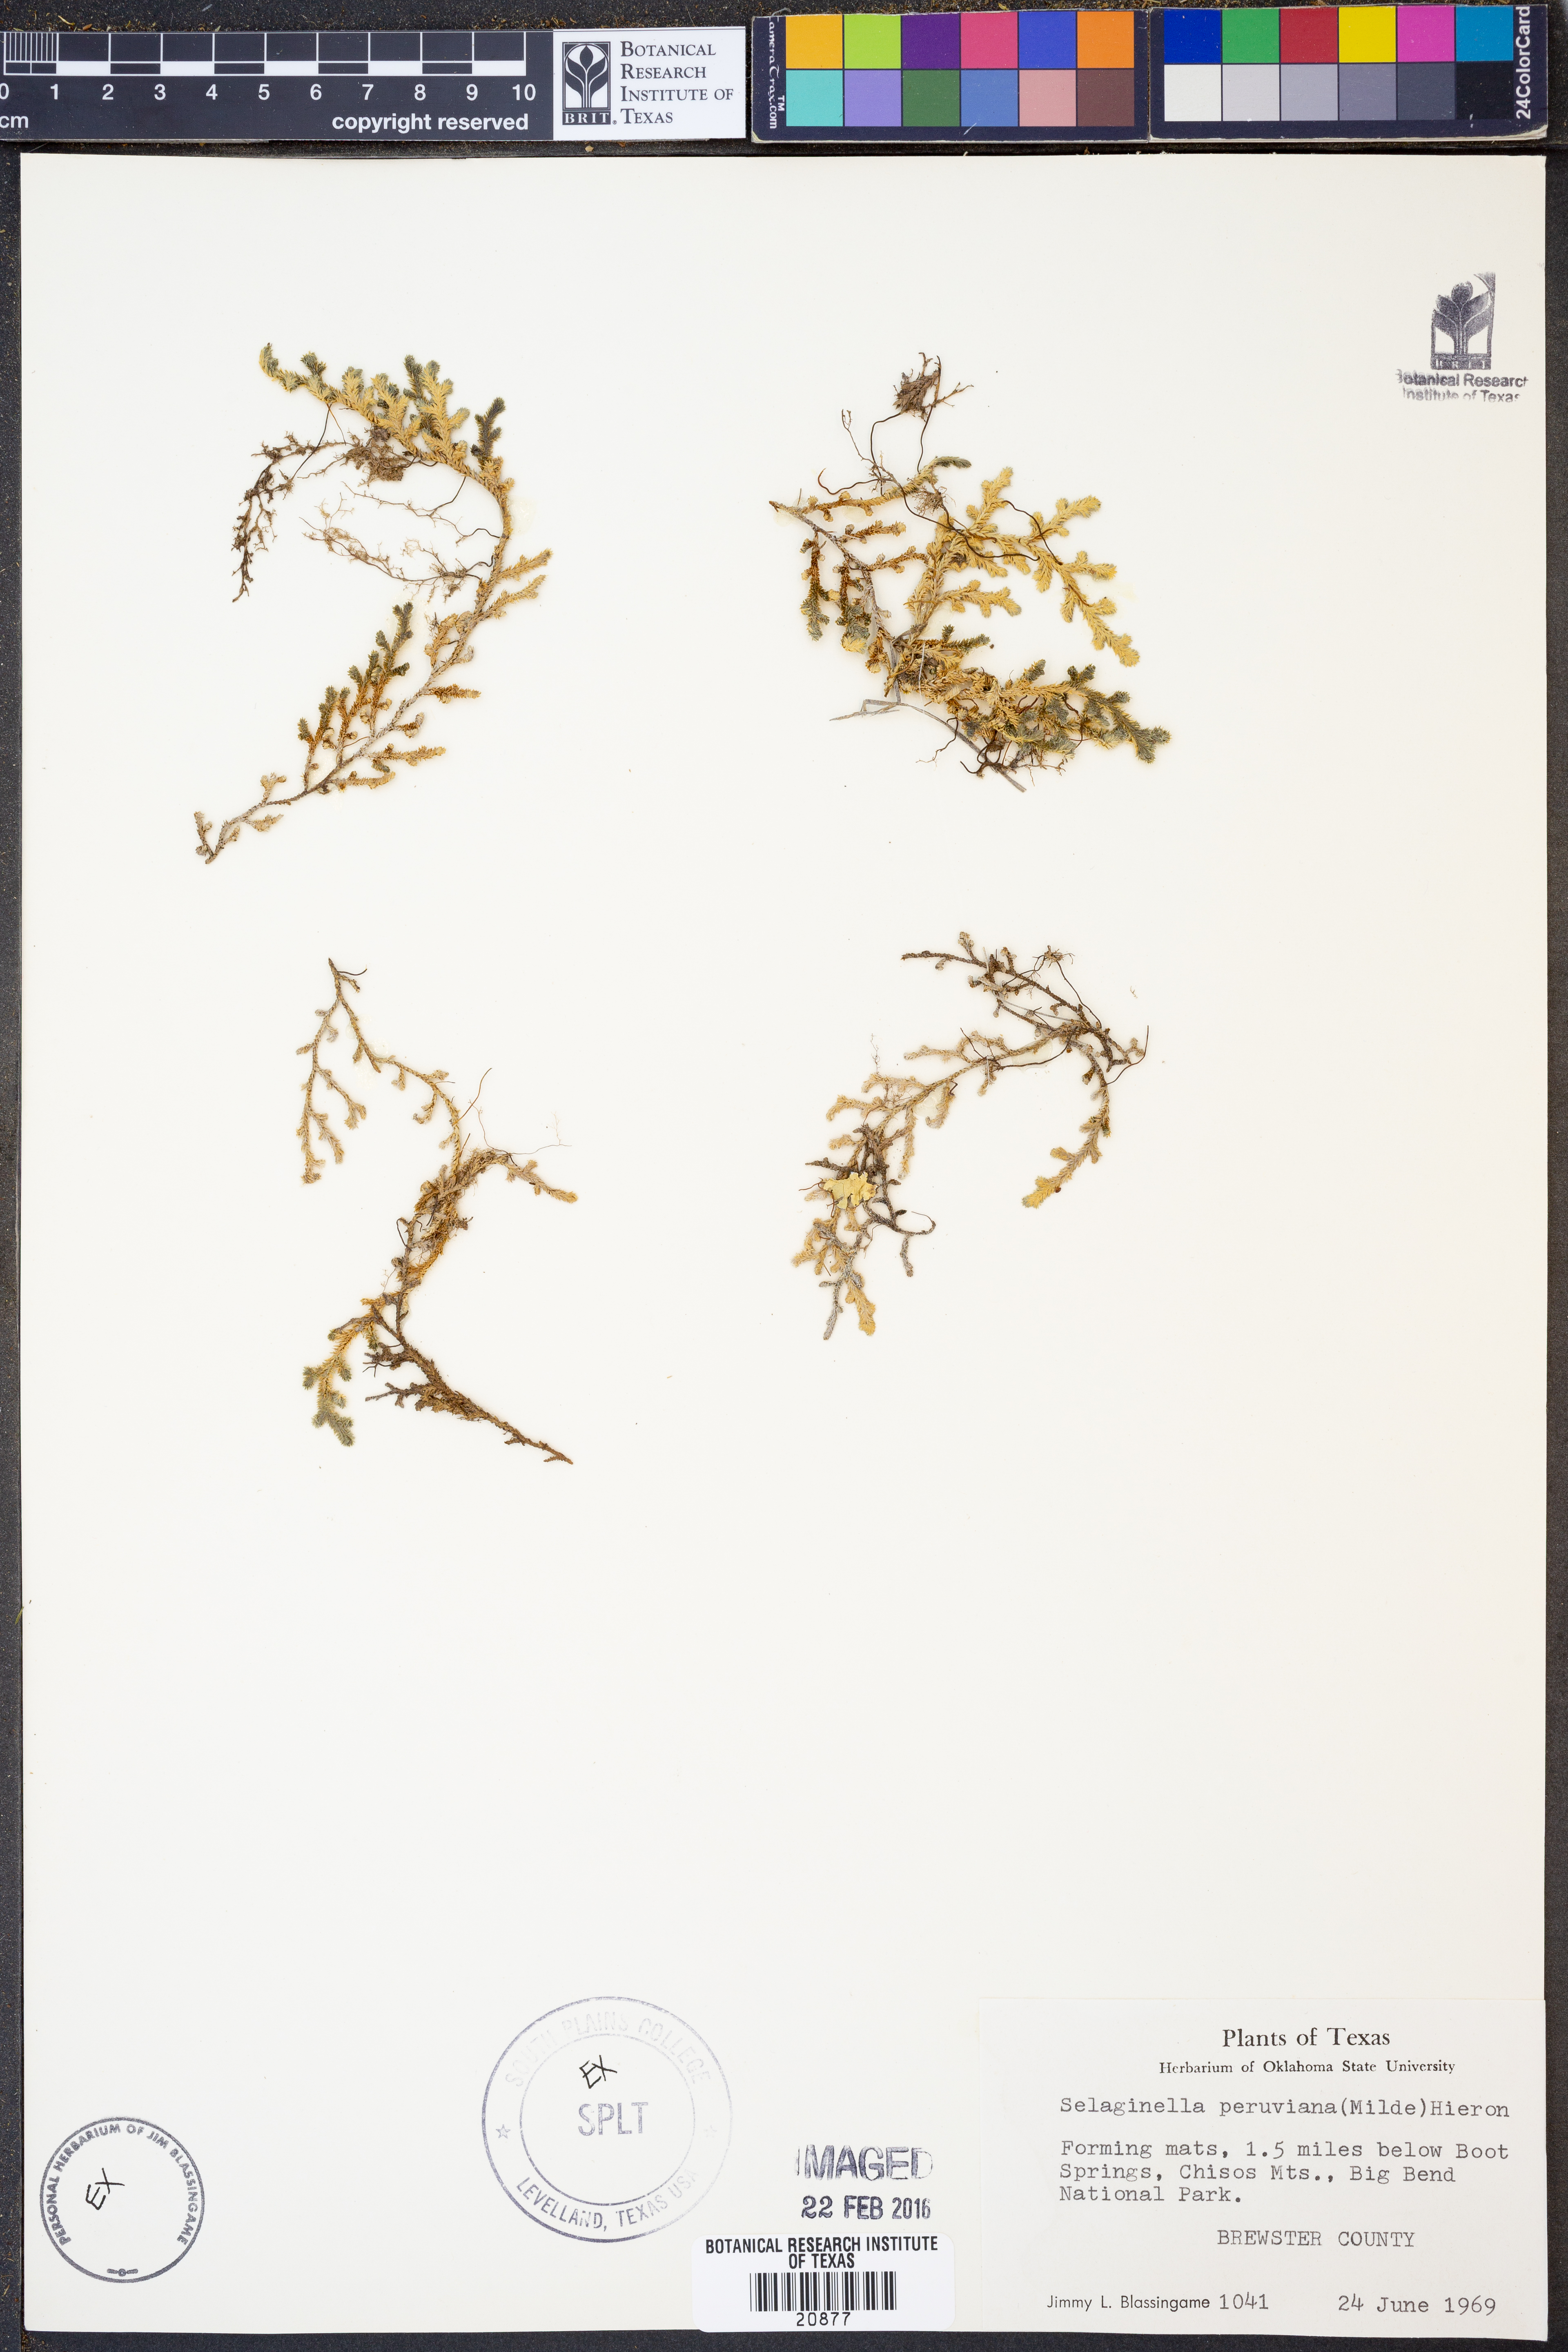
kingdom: Plantae
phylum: Tracheophyta
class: Lycopodiopsida
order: Selaginellales
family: Selaginellaceae
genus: Selaginella
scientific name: Selaginella peruviana
